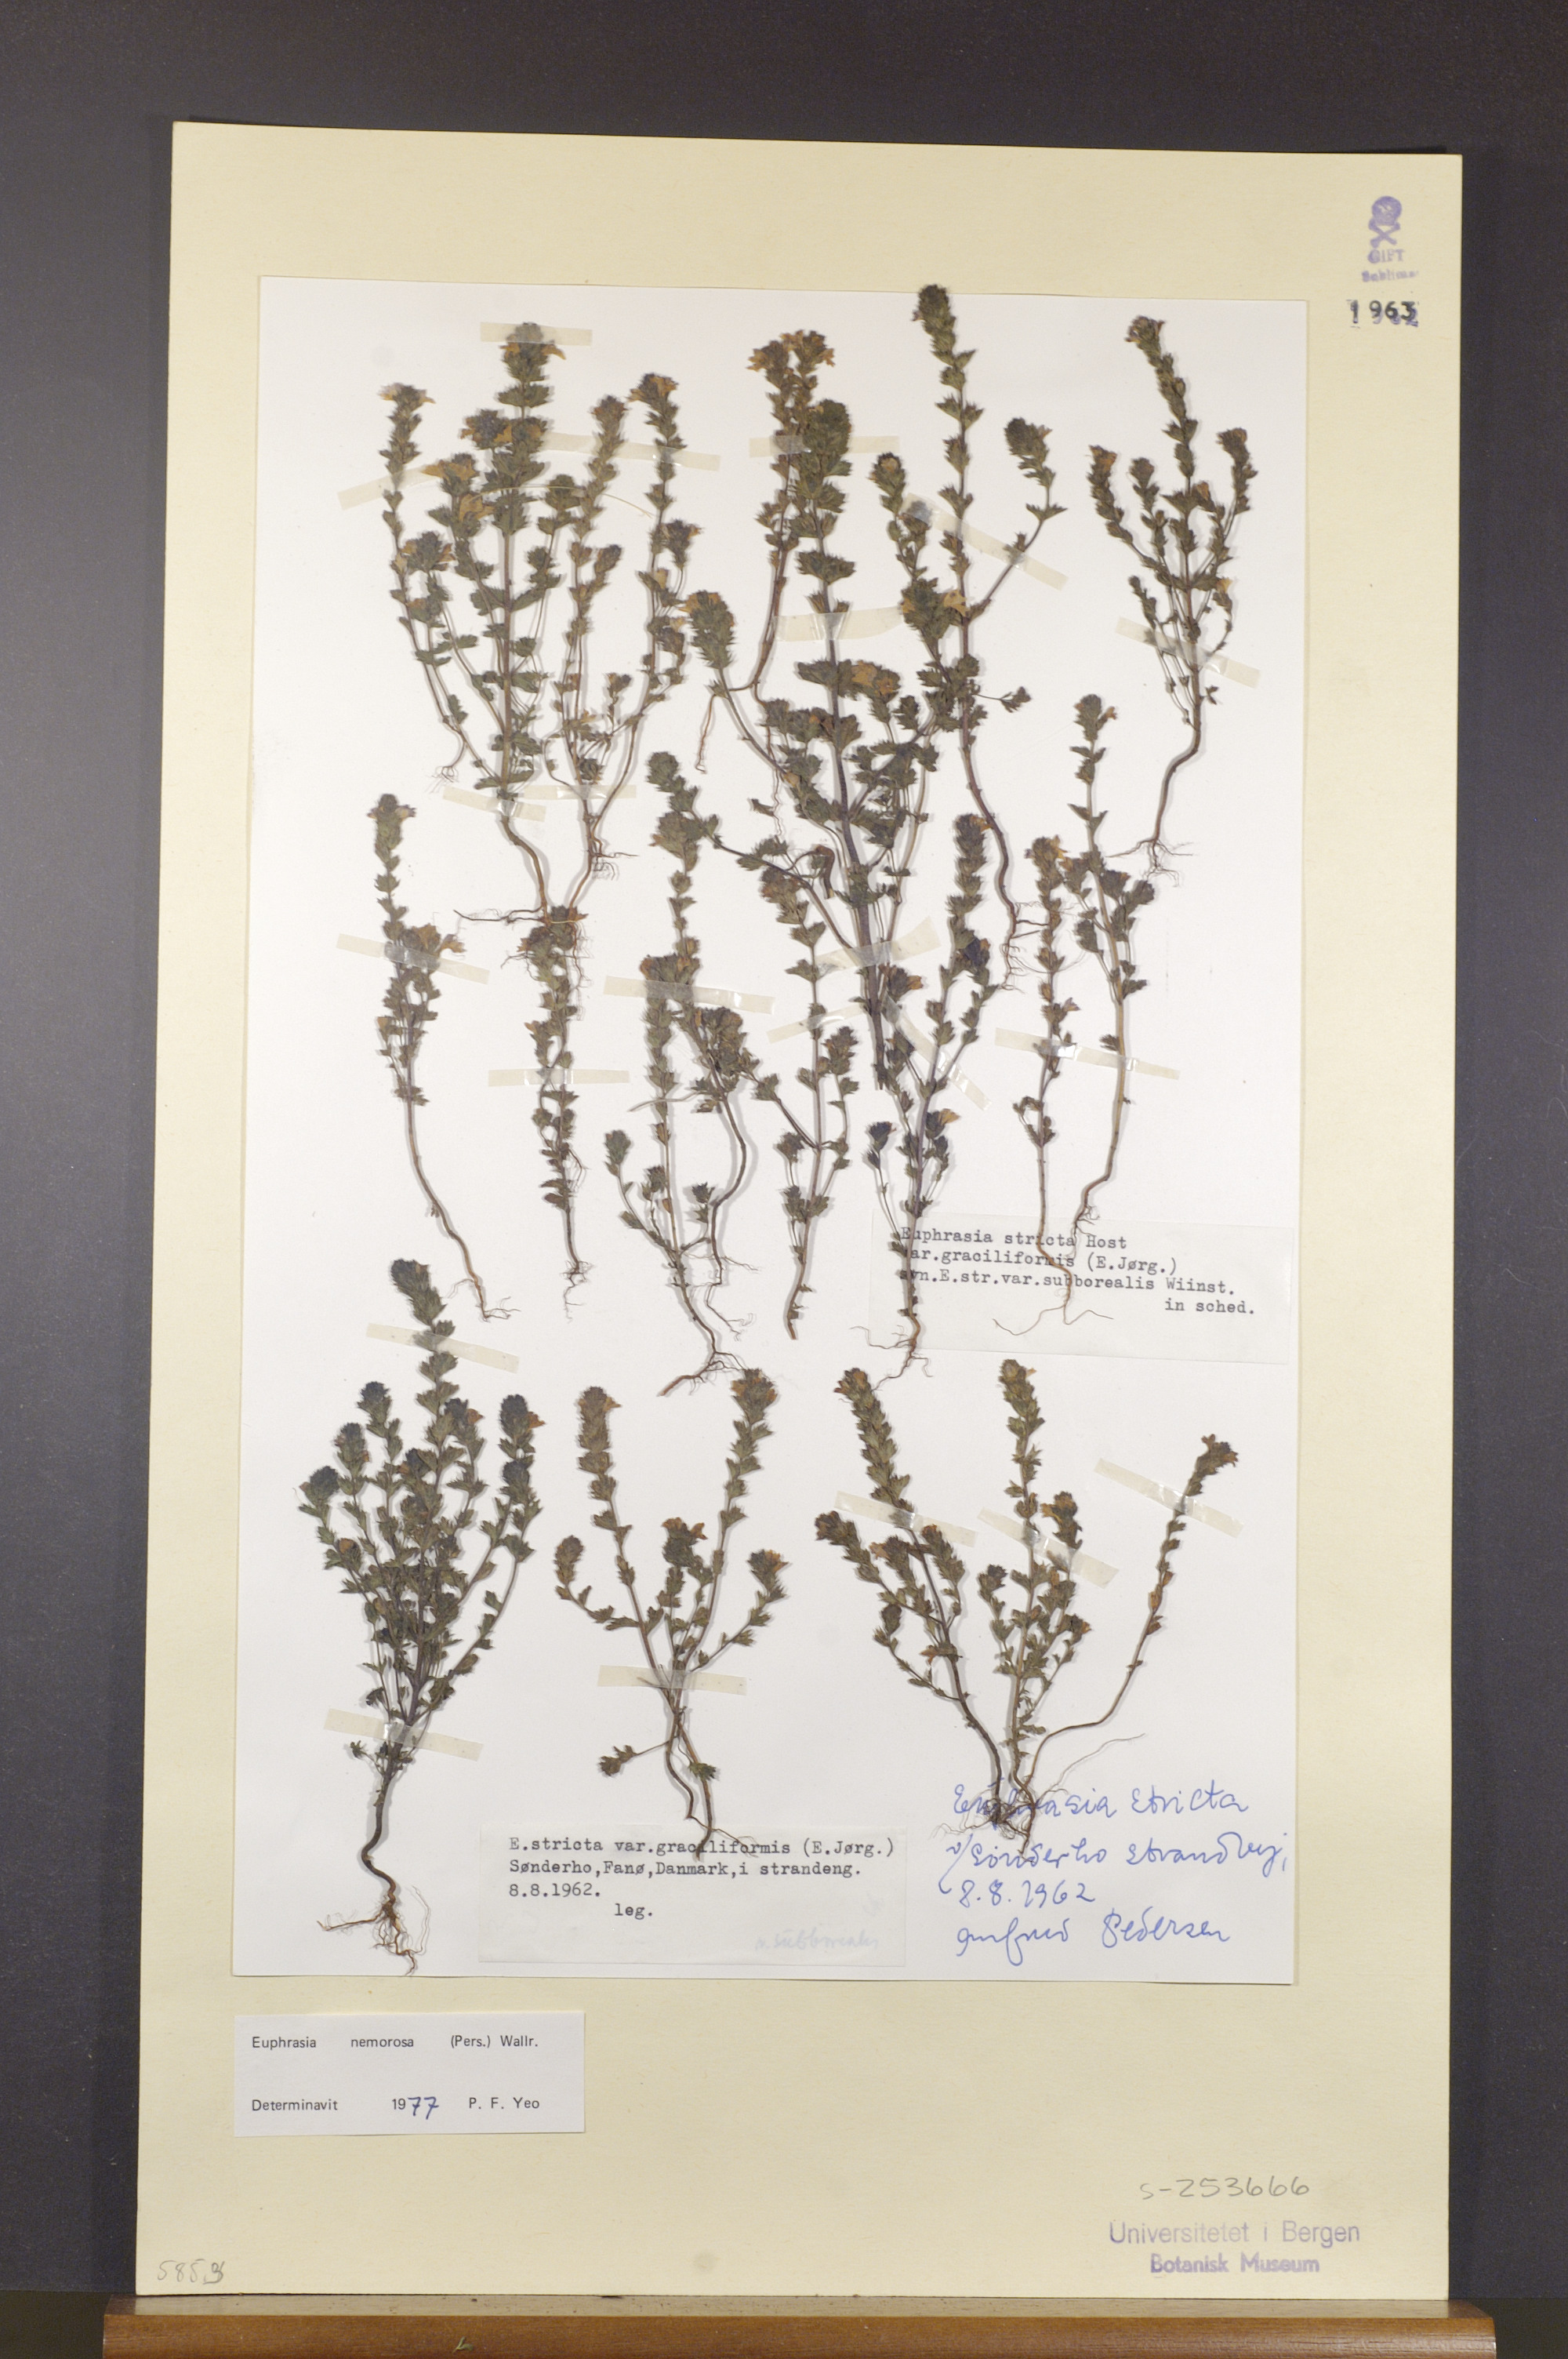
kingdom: Plantae
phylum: Tracheophyta
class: Magnoliopsida
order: Lamiales
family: Orobanchaceae
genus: Euphrasia
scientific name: Euphrasia nemorosa
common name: Common eyebright
